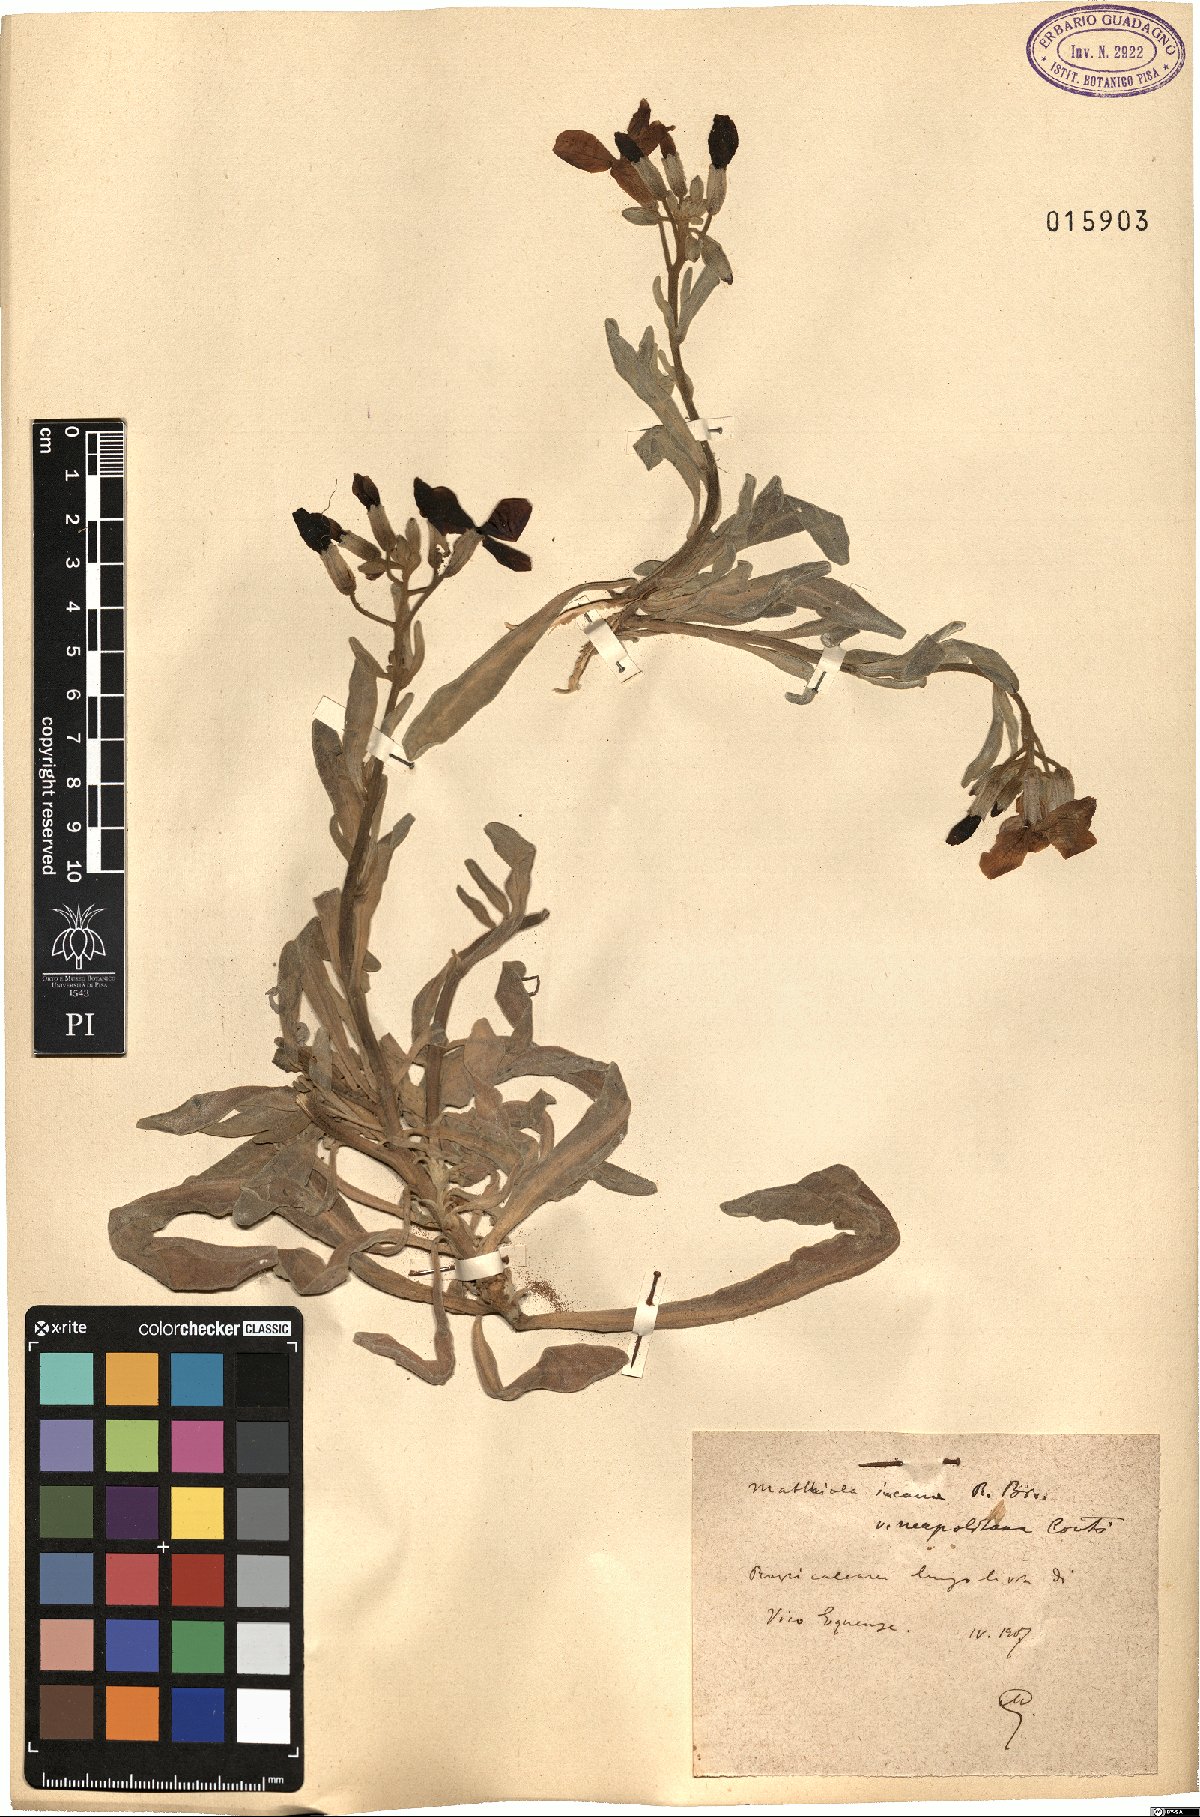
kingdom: Plantae
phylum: Tracheophyta
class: Magnoliopsida
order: Brassicales
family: Brassicaceae
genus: Matthiola
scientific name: Matthiola incana
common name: Hoary stock
